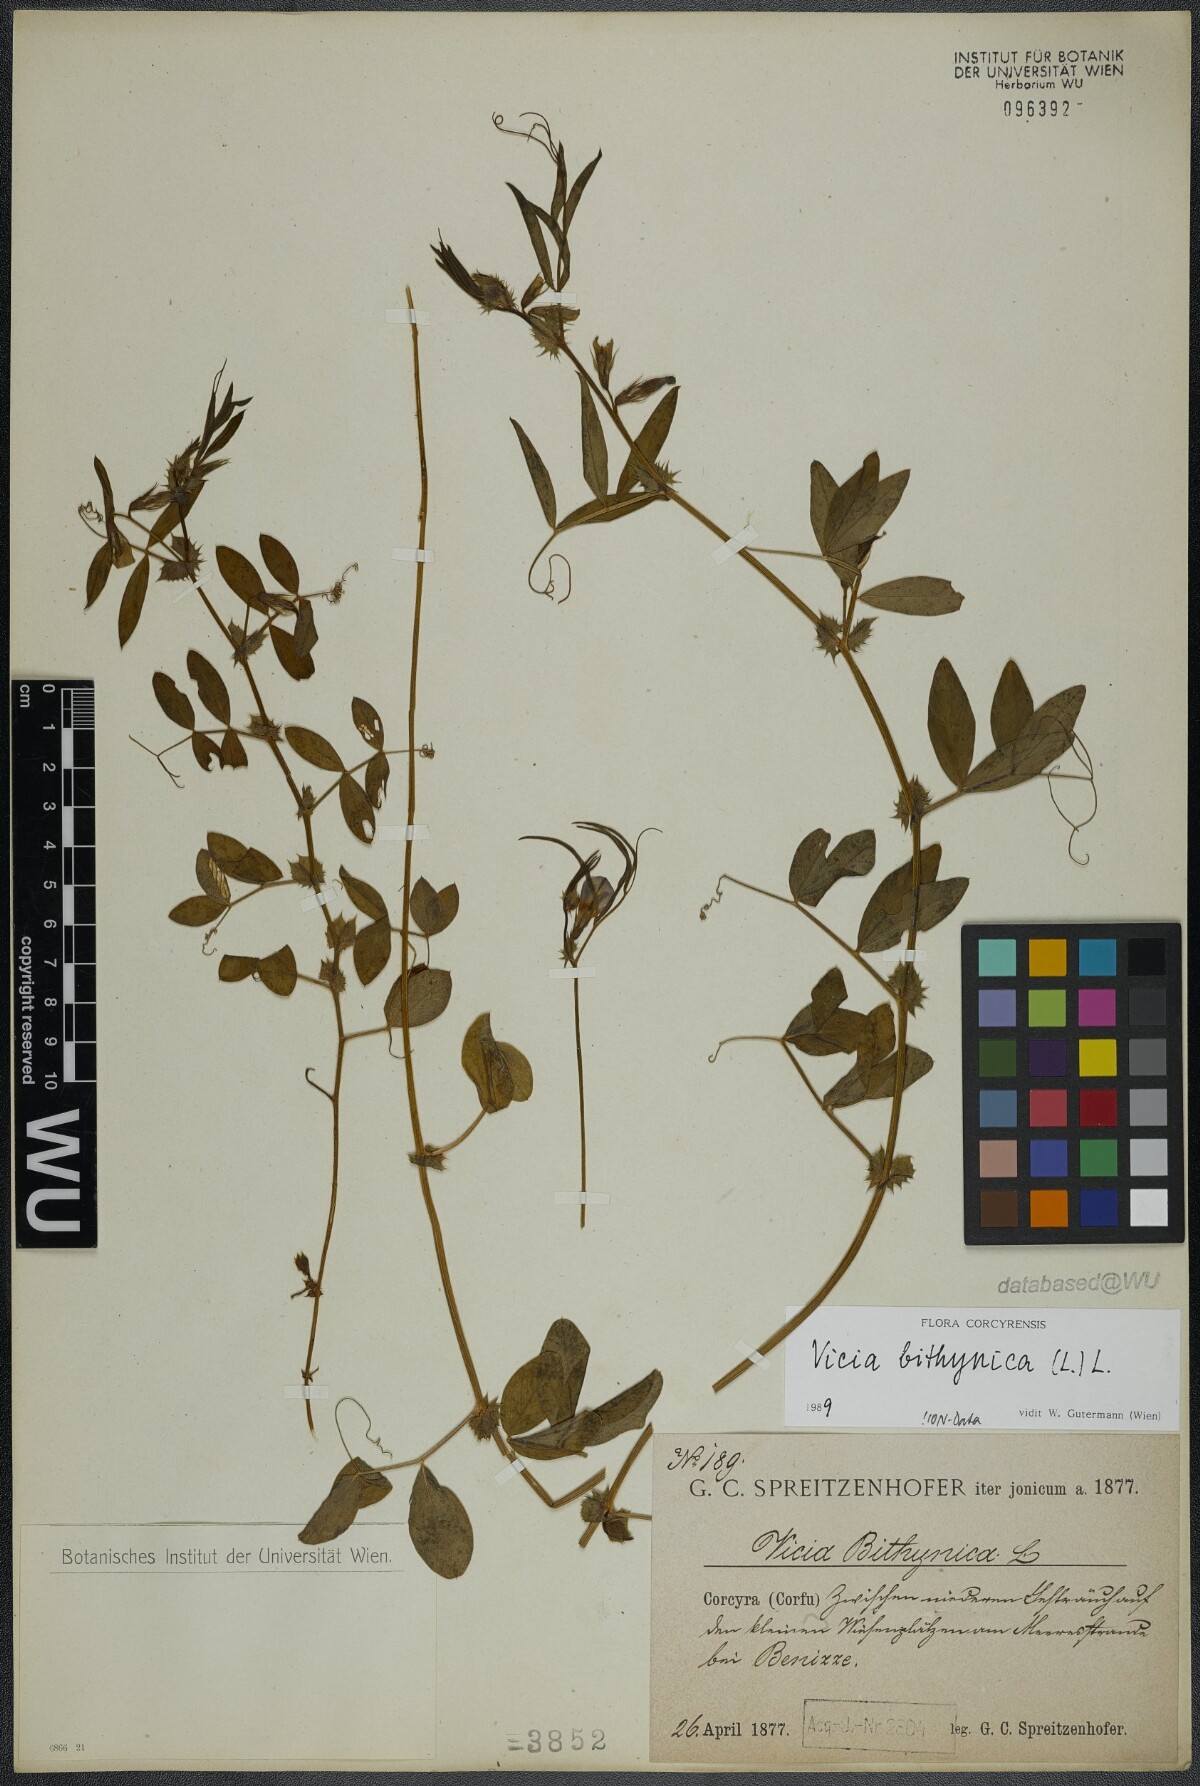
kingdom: Plantae
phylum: Tracheophyta
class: Magnoliopsida
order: Fabales
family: Fabaceae
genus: Vicia
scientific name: Vicia bithynica
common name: Bithynian vetch
